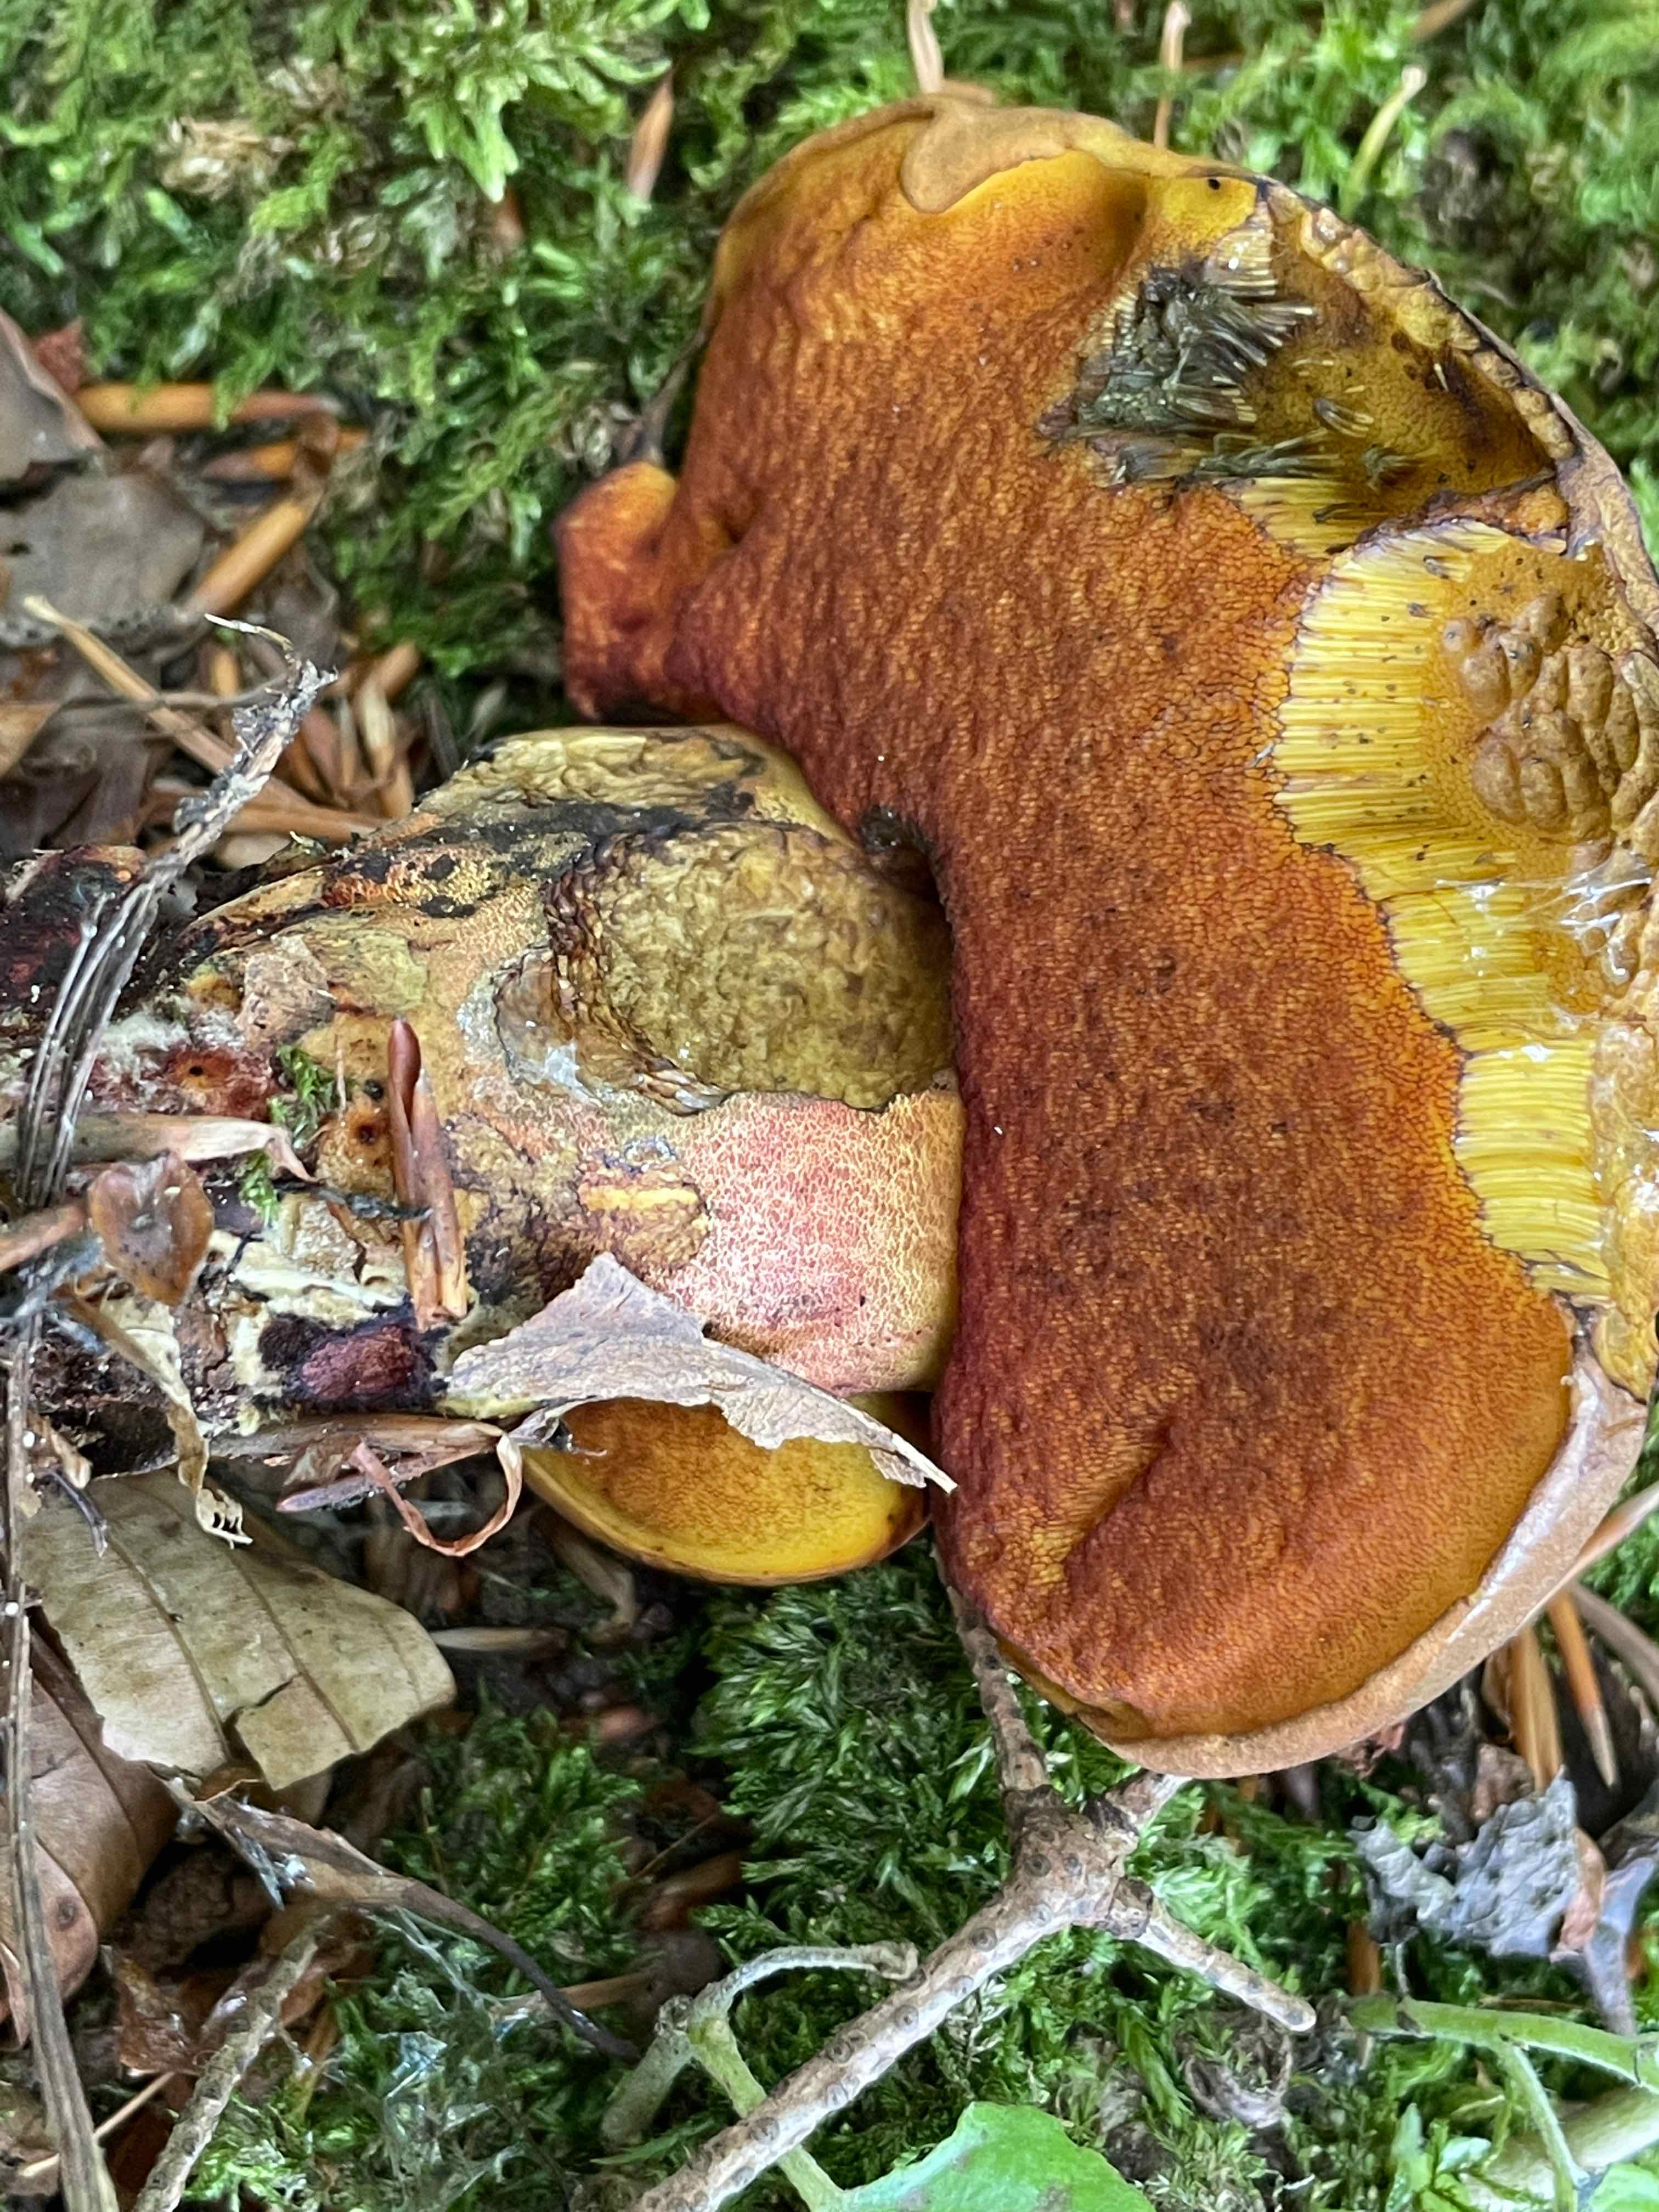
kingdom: Fungi
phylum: Basidiomycota
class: Agaricomycetes
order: Boletales
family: Boletaceae
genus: Neoboletus
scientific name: Neoboletus erythropus
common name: punktstokket indigorørhat
